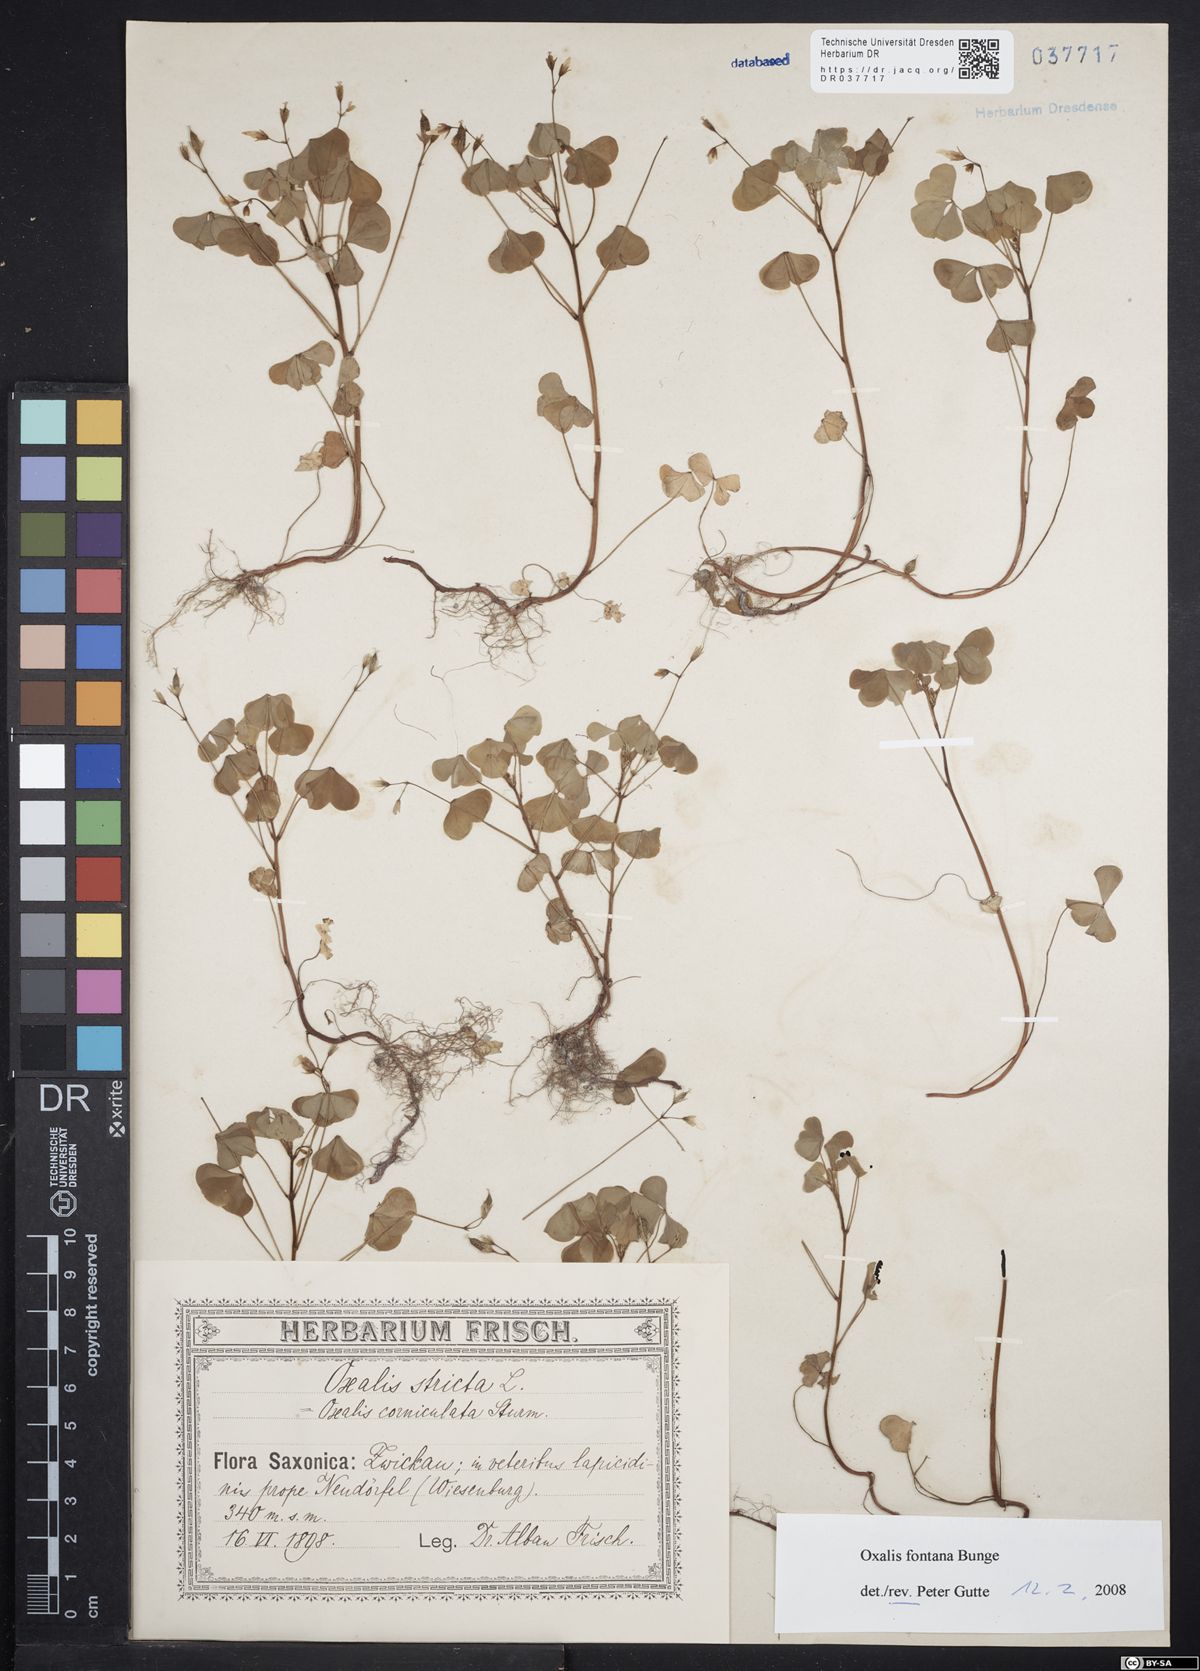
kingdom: Plantae
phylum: Tracheophyta
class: Magnoliopsida
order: Oxalidales
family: Oxalidaceae
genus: Oxalis
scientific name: Oxalis stricta
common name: Upright yellow-sorrel
